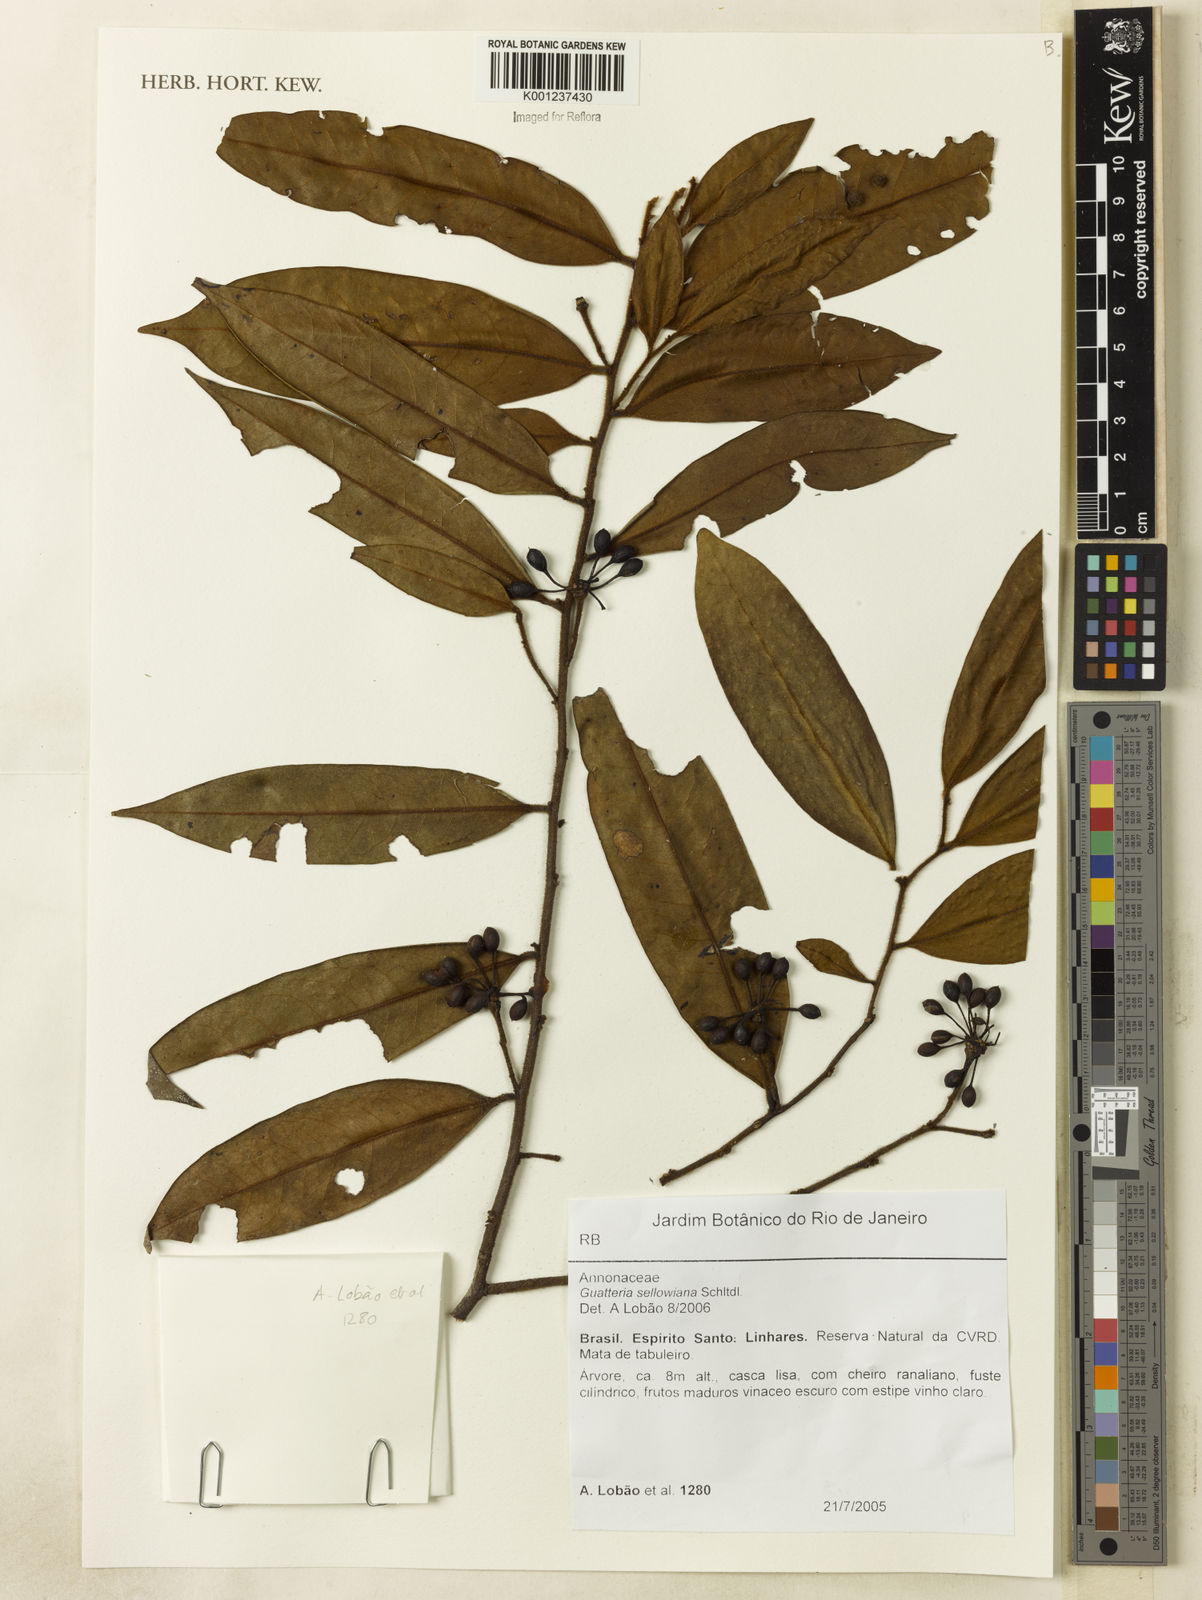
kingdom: Plantae
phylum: Tracheophyta
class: Magnoliopsida
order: Magnoliales
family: Annonaceae
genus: Guatteria
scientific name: Guatteria sellowiana
